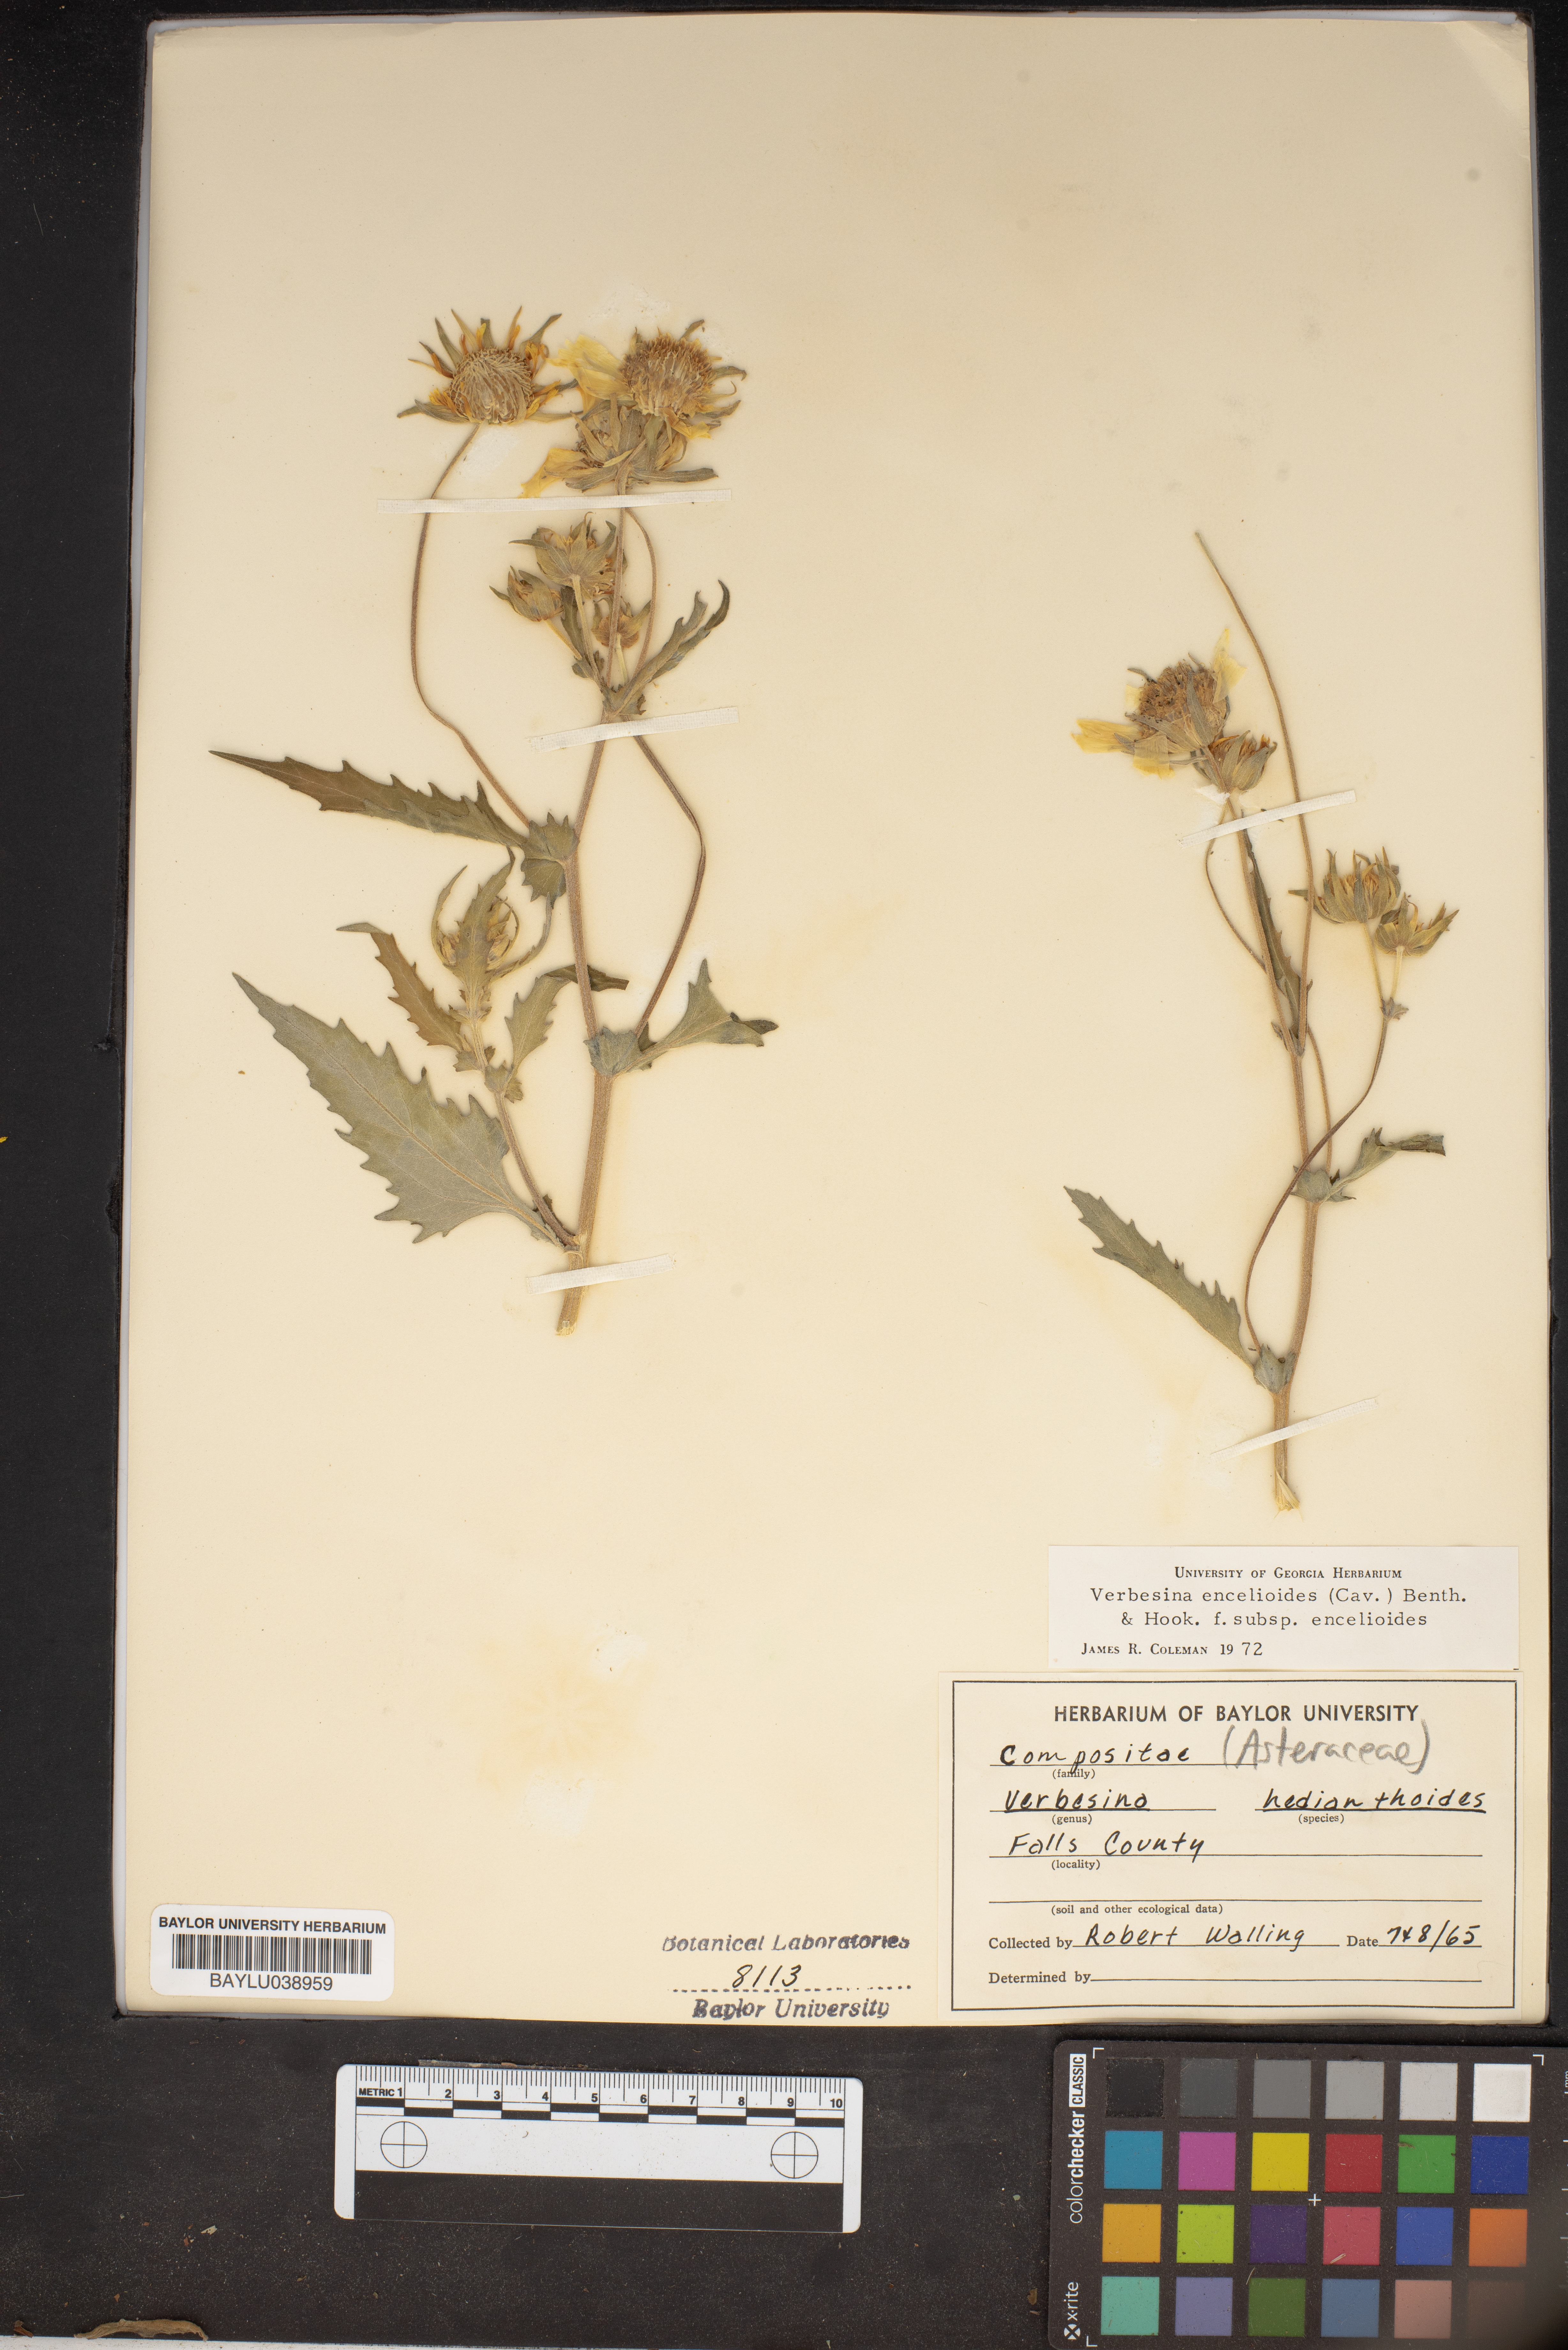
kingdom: Plantae
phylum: Tracheophyta
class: Magnoliopsida
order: Asterales
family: Asteraceae
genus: Verbesina
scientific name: Verbesina encelioides
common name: Golden crownbeard
